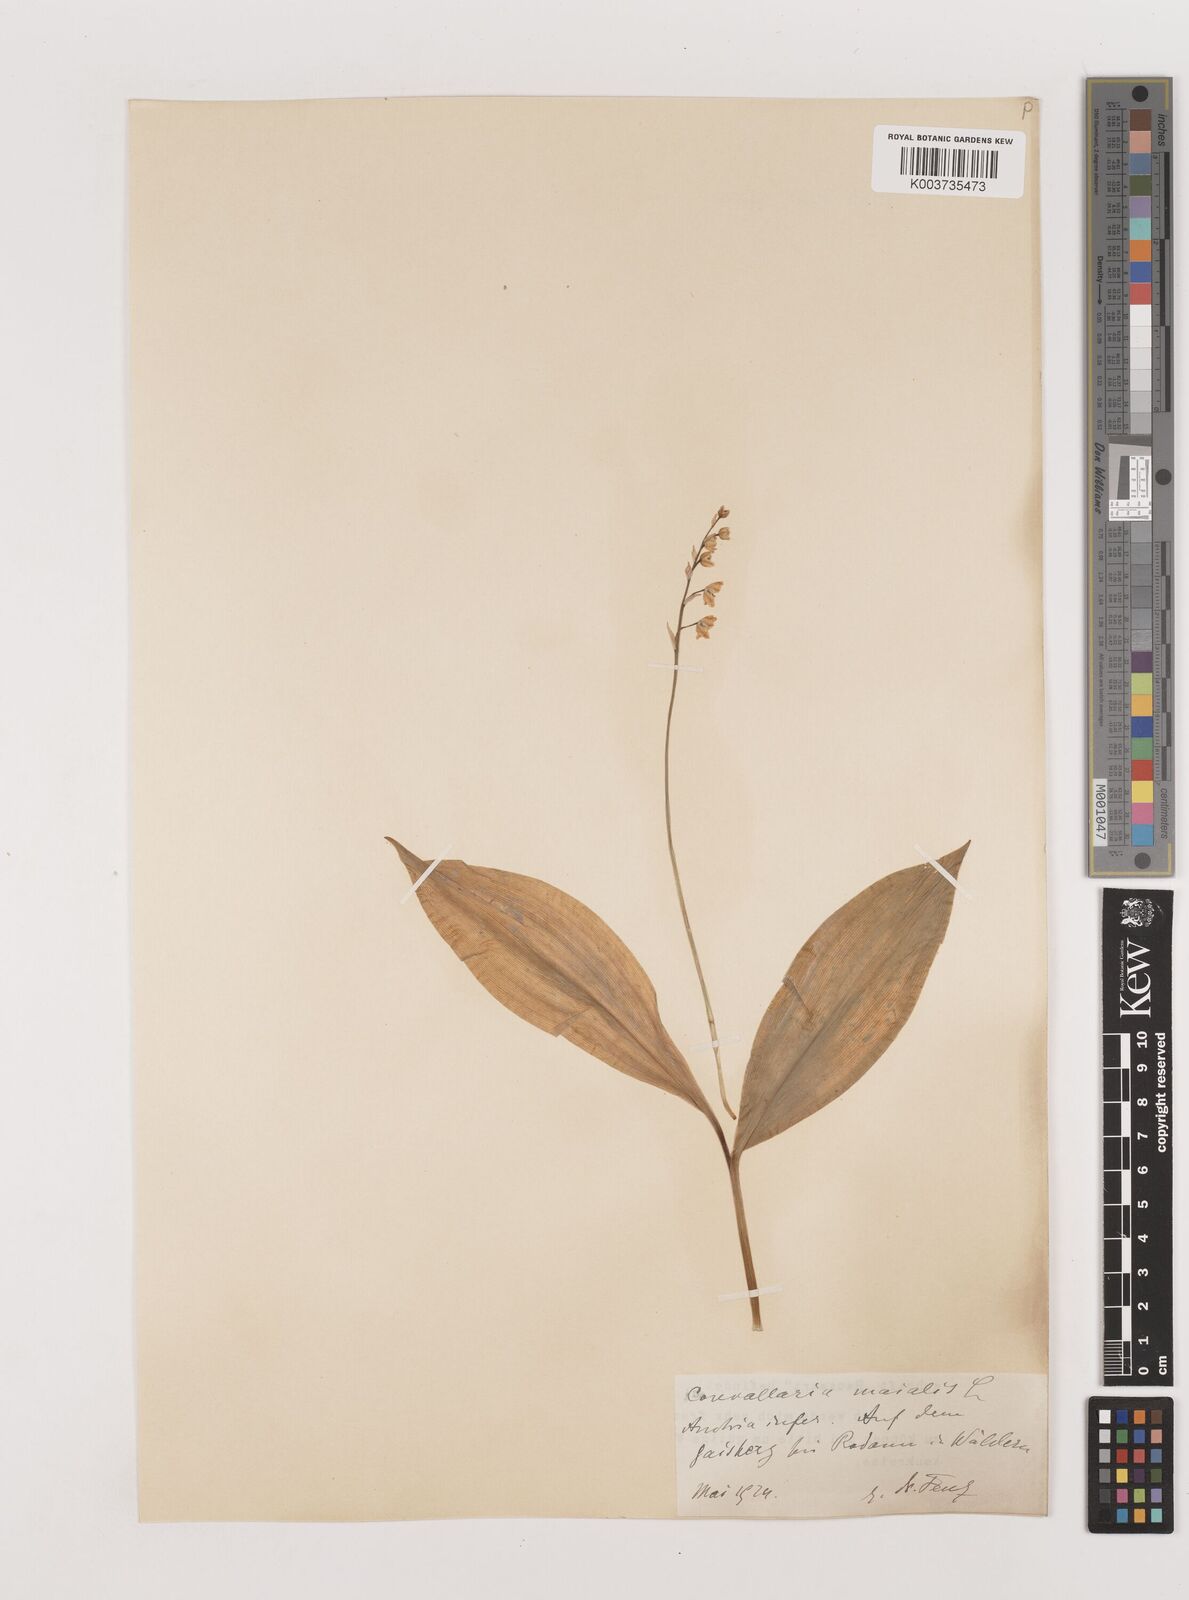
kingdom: Plantae
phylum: Tracheophyta
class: Liliopsida
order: Asparagales
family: Asparagaceae
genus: Convallaria
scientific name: Convallaria majalis
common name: Lily-of-the-valley
